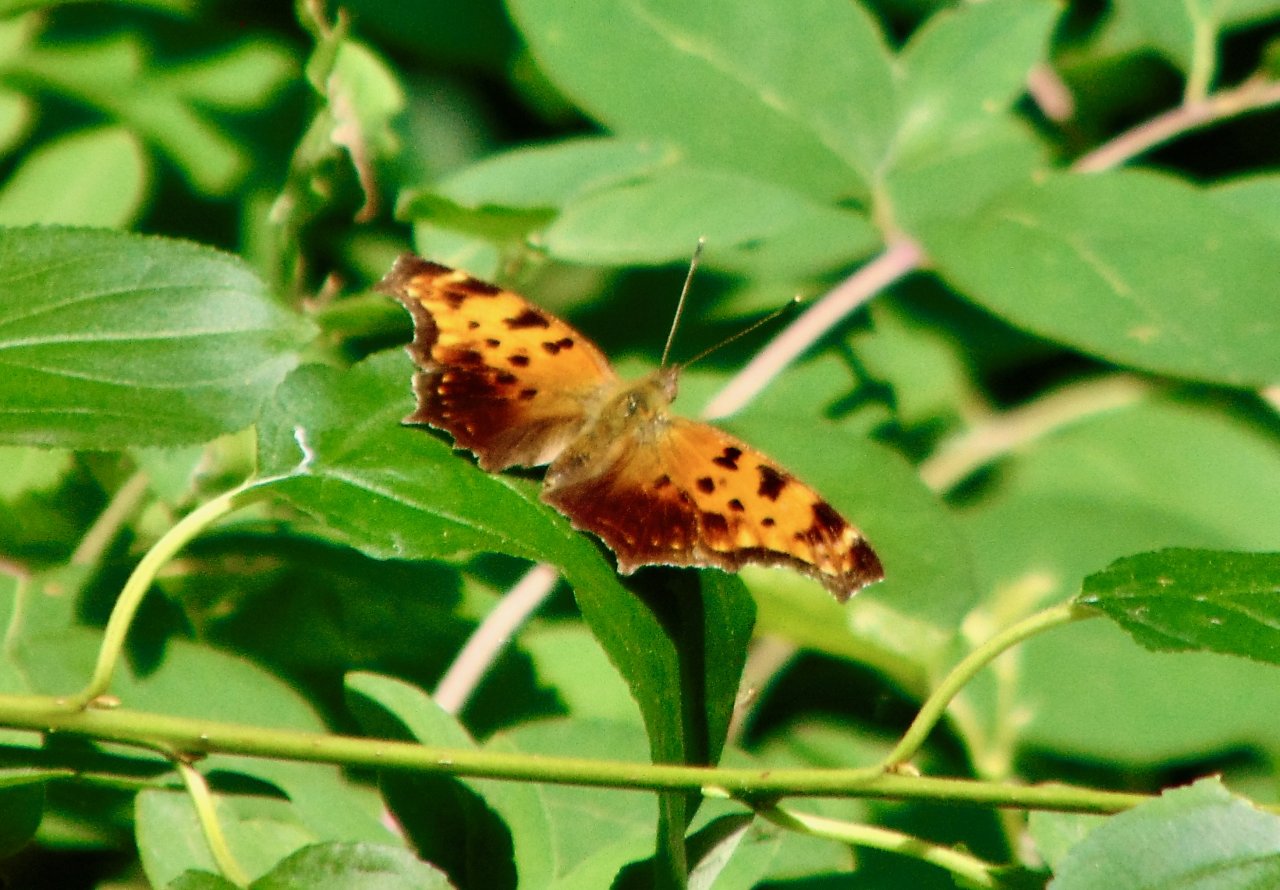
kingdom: Animalia
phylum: Arthropoda
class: Insecta
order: Lepidoptera
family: Nymphalidae
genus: Polygonia
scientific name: Polygonia comma
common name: Eastern Comma
